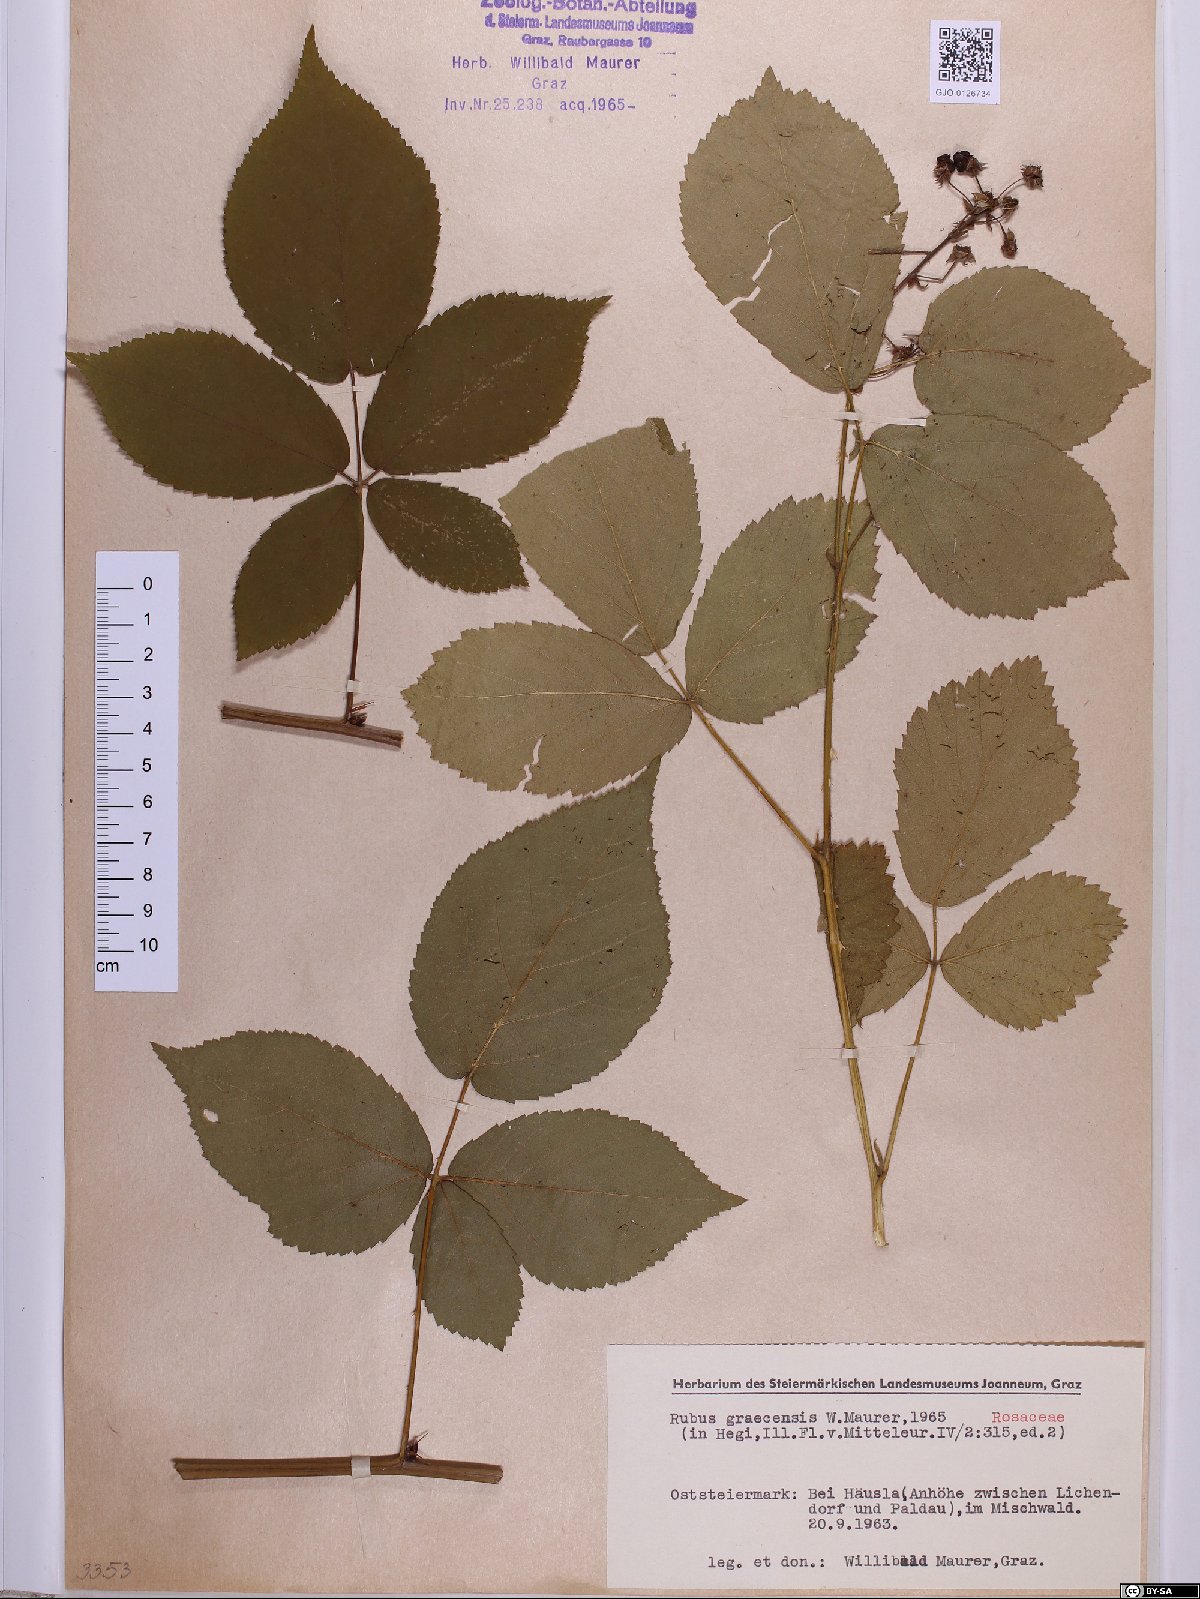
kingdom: Plantae
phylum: Tracheophyta
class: Magnoliopsida
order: Rosales
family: Rosaceae
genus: Rubus
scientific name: Rubus graecensis
